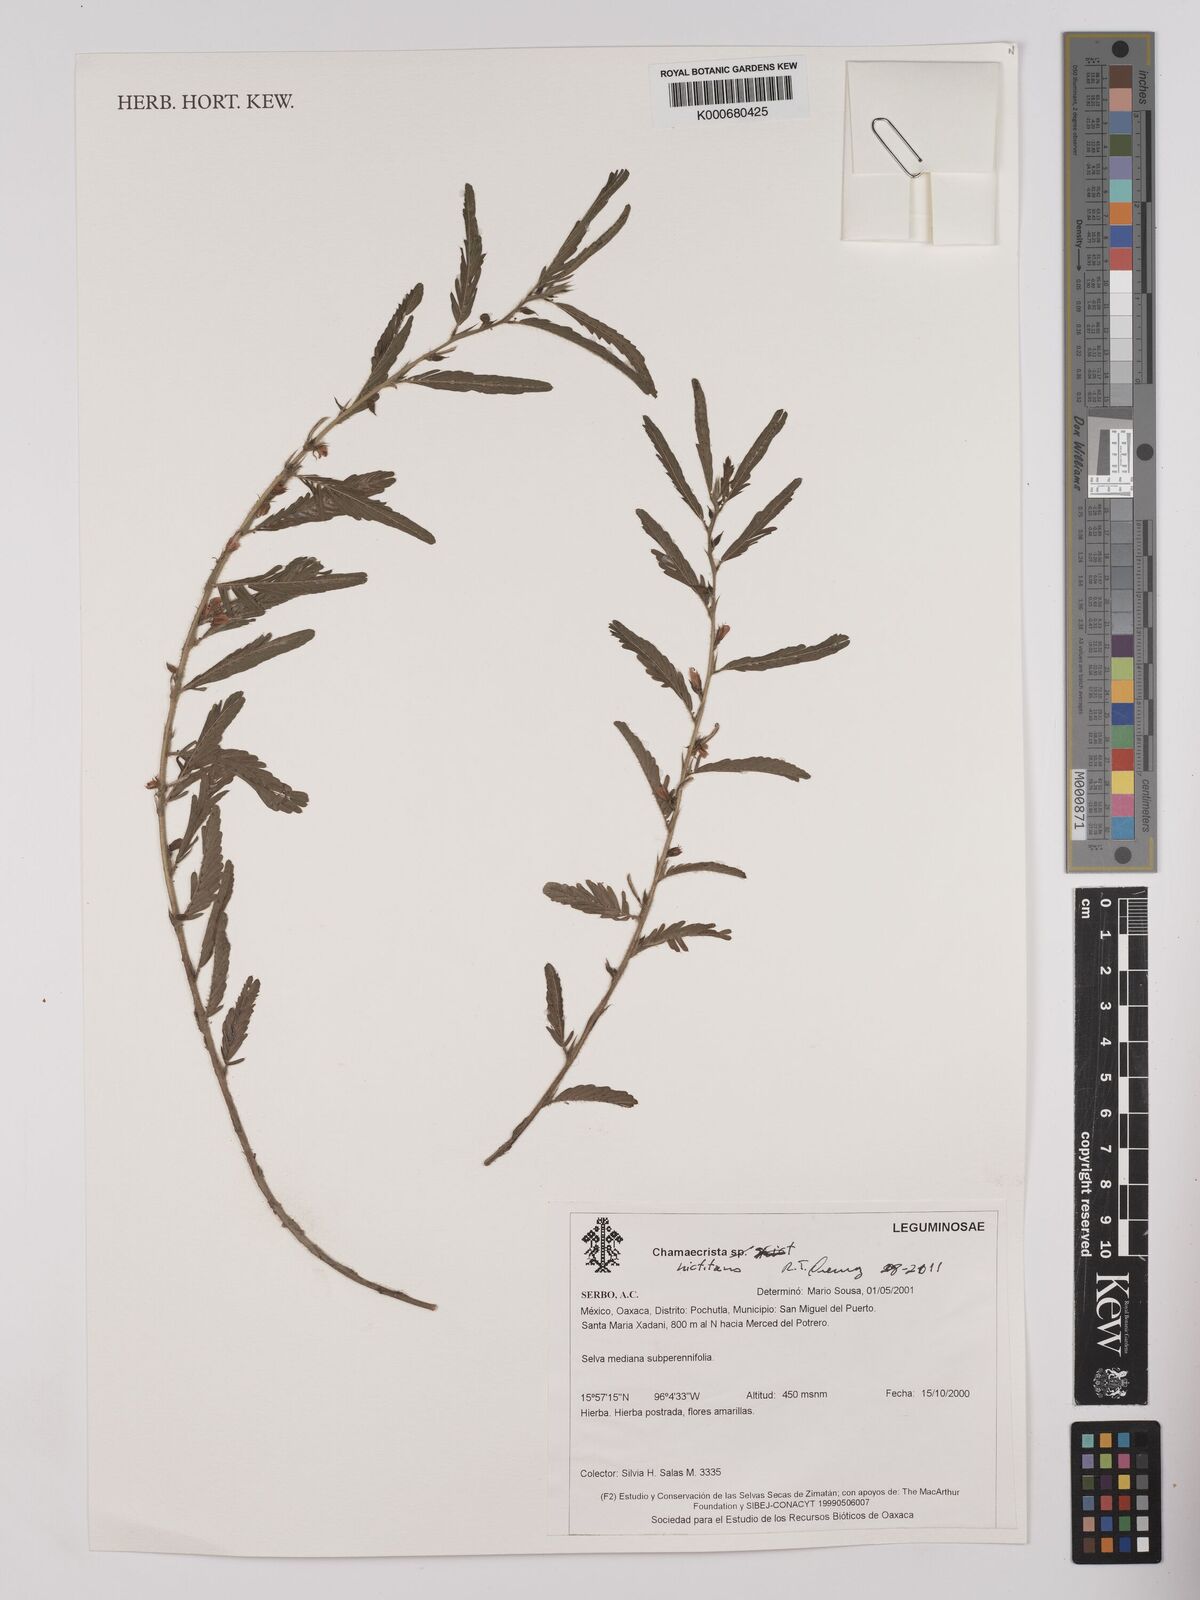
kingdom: Plantae
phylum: Tracheophyta
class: Magnoliopsida
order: Fabales
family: Fabaceae
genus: Chamaecrista
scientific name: Chamaecrista
